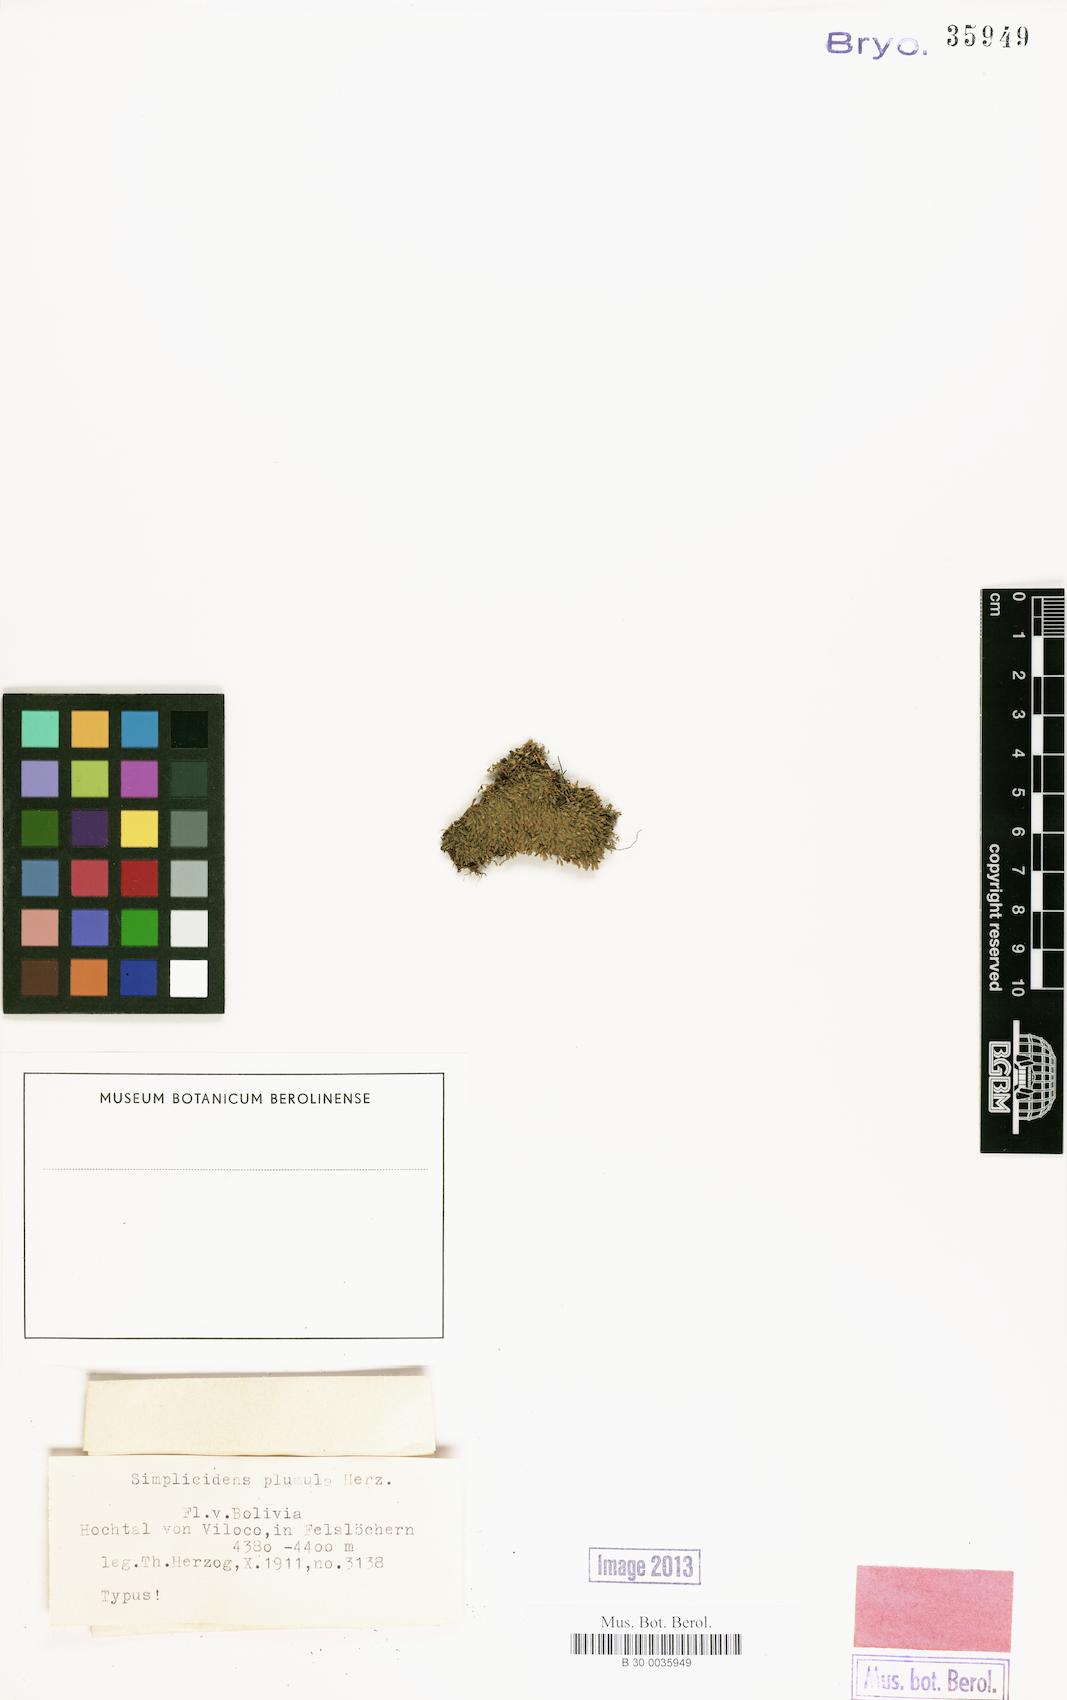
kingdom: Plantae
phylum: Bryophyta
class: Bryopsida
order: Dicranales
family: Fissidentaceae
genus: Fissidens
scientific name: Fissidens andicola
